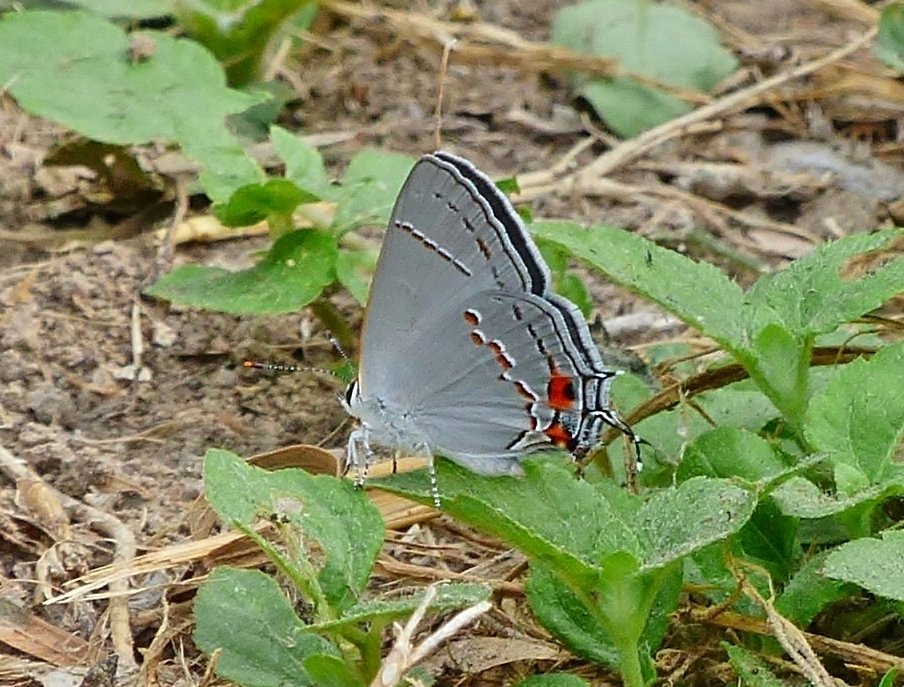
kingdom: Animalia
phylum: Arthropoda
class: Insecta
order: Lepidoptera
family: Lycaenidae
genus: Strymon
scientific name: Strymon melinus
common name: Gray Hairstreak
